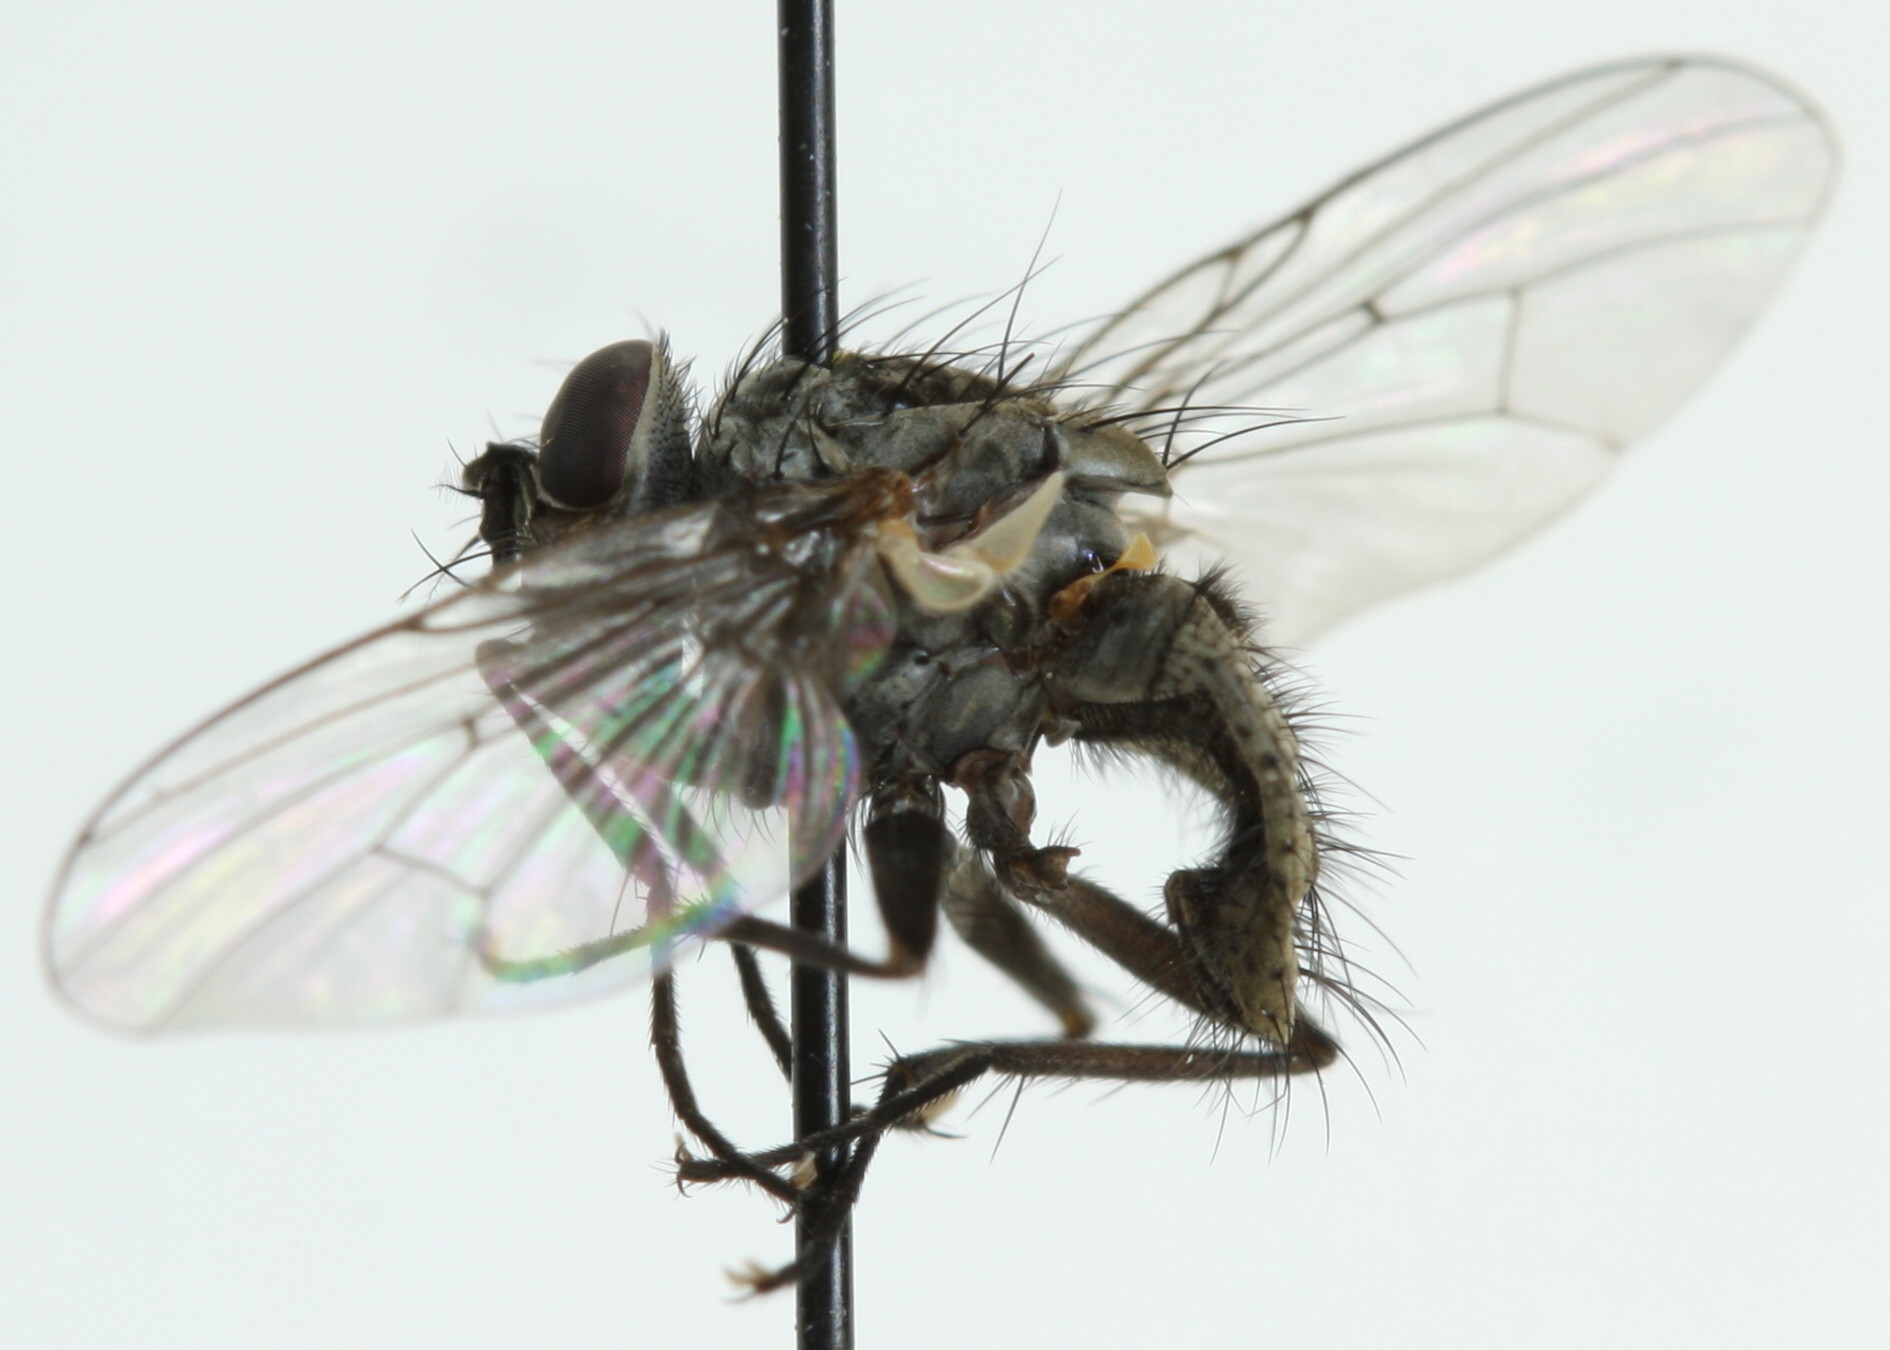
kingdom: Animalia
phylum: Arthropoda
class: Insecta
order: Diptera
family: Muscidae
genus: Helina
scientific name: Helina reversio
